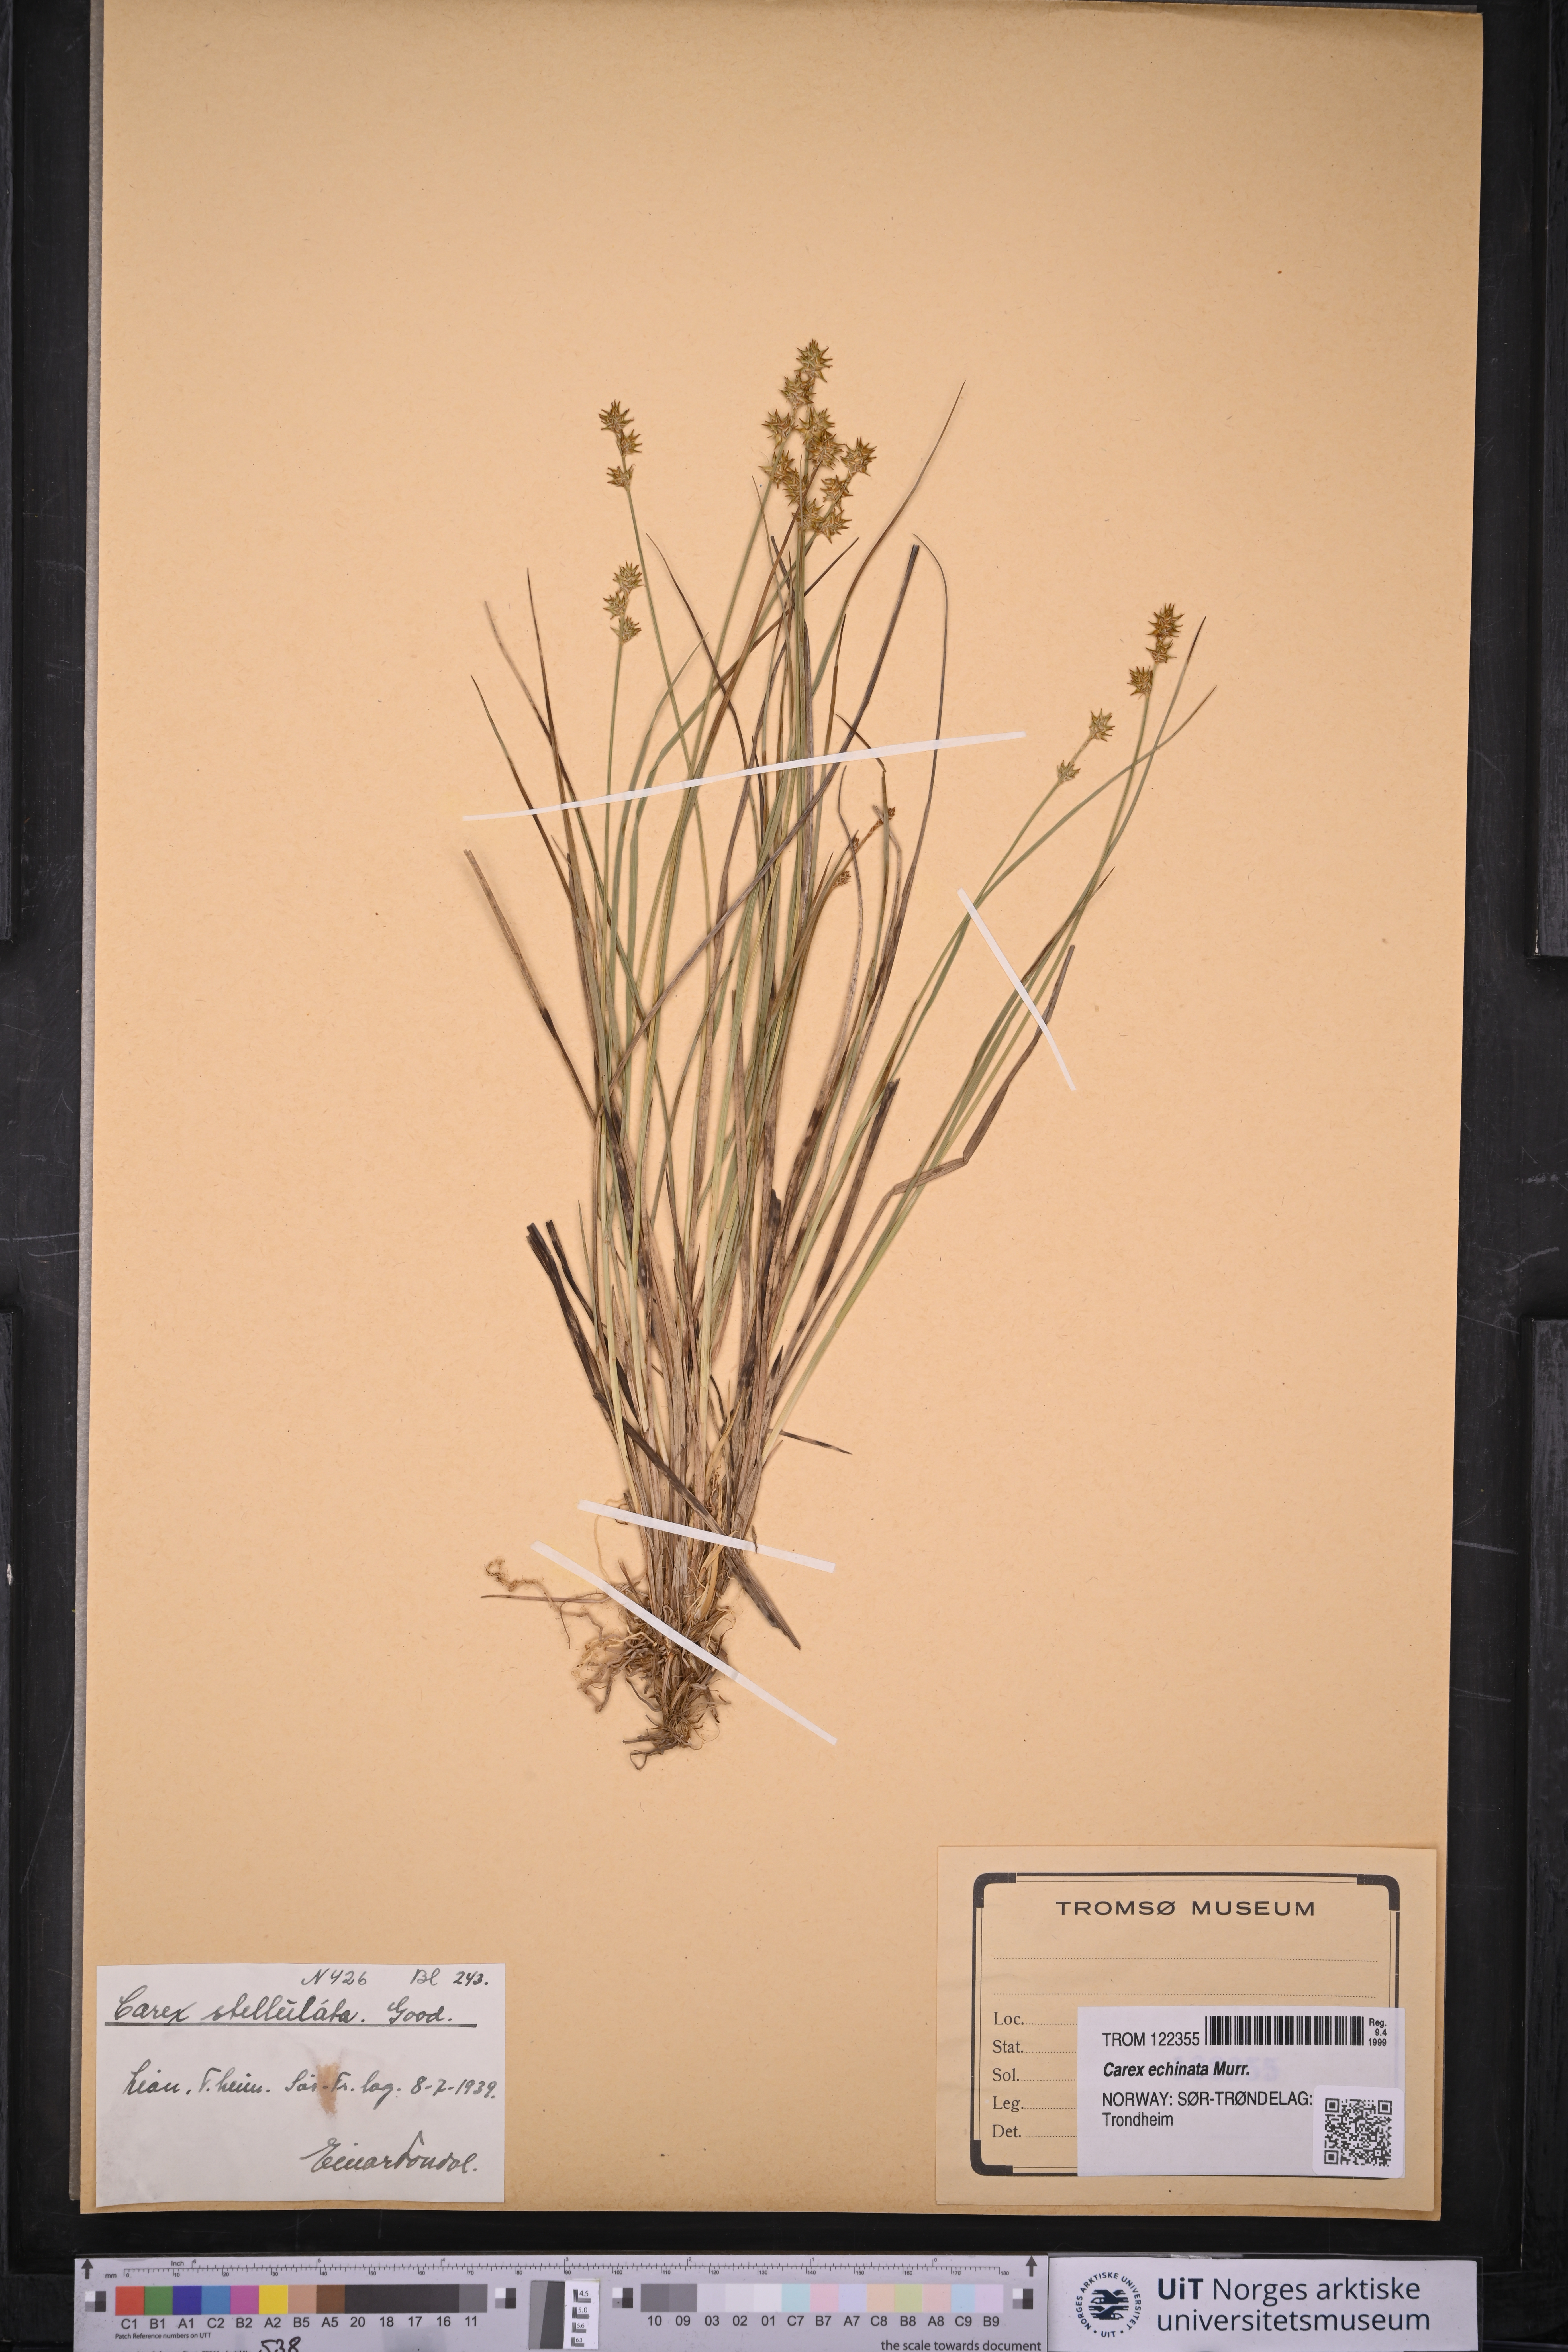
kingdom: Plantae
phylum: Tracheophyta
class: Liliopsida
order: Poales
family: Cyperaceae
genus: Carex
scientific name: Carex echinata
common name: Star sedge
